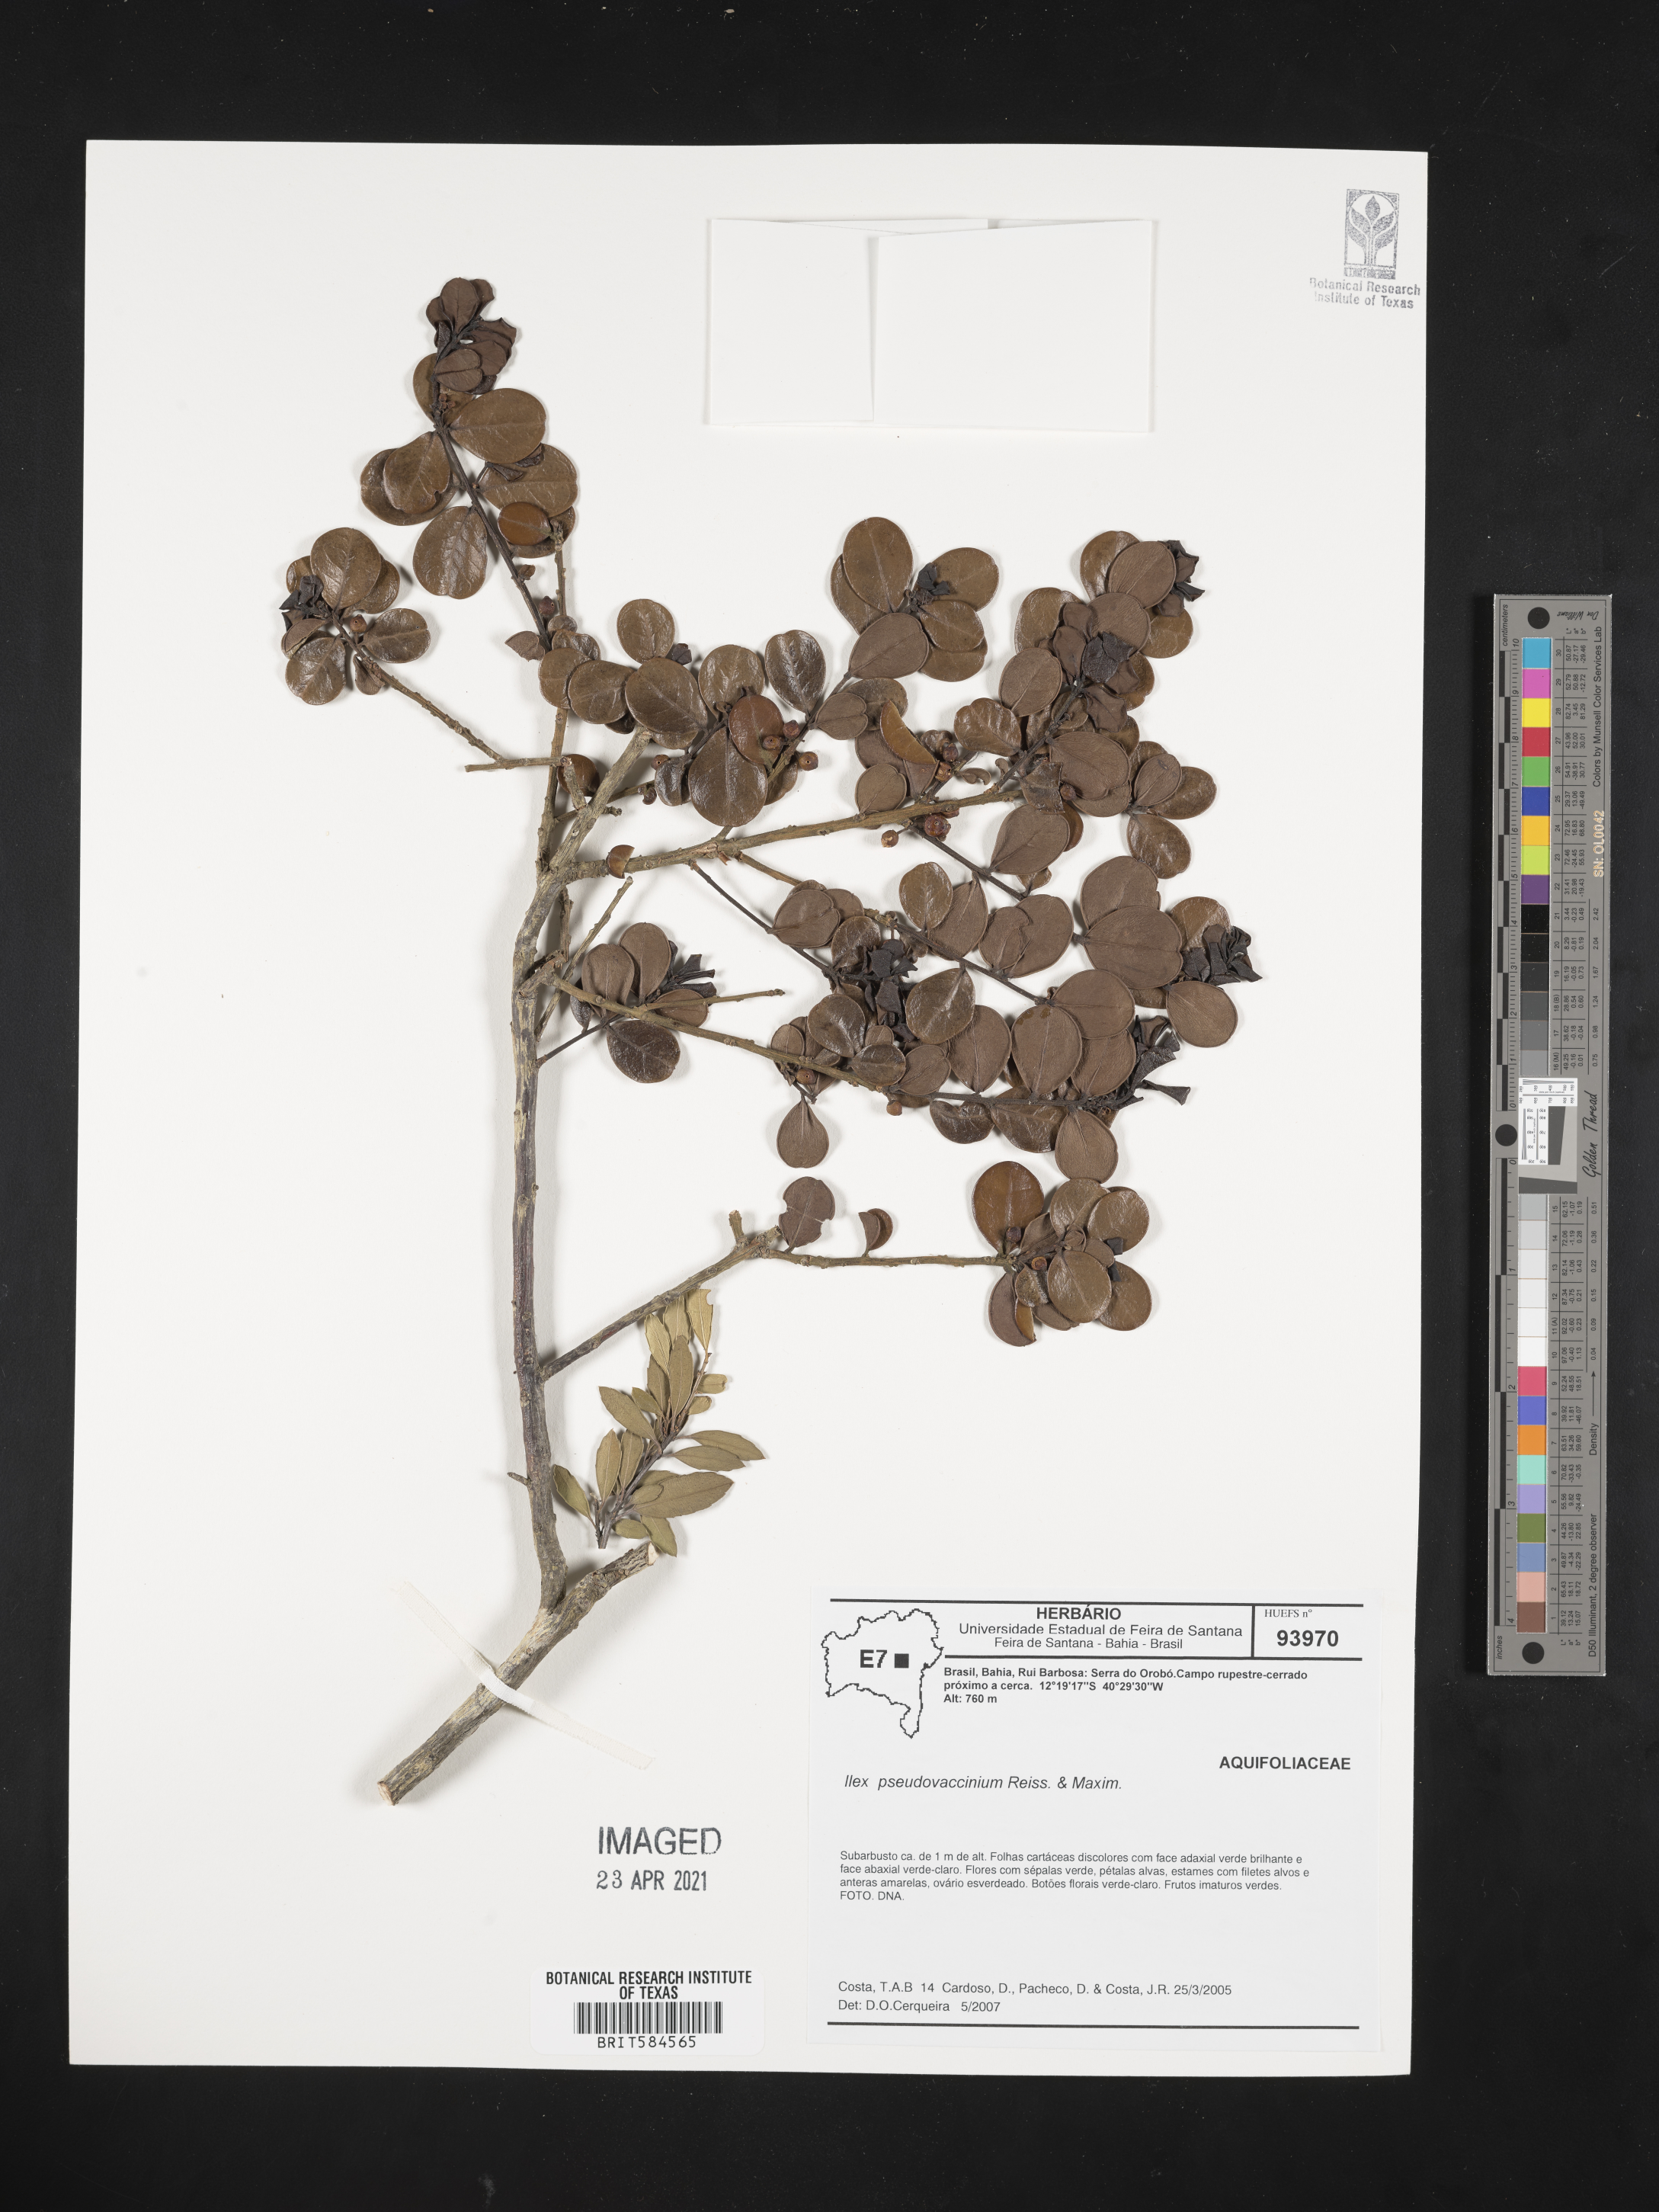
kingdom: Plantae
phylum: Tracheophyta
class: Magnoliopsida
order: Aquifoliales
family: Aquifoliaceae
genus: Ilex
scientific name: Ilex pseudovaccinium
